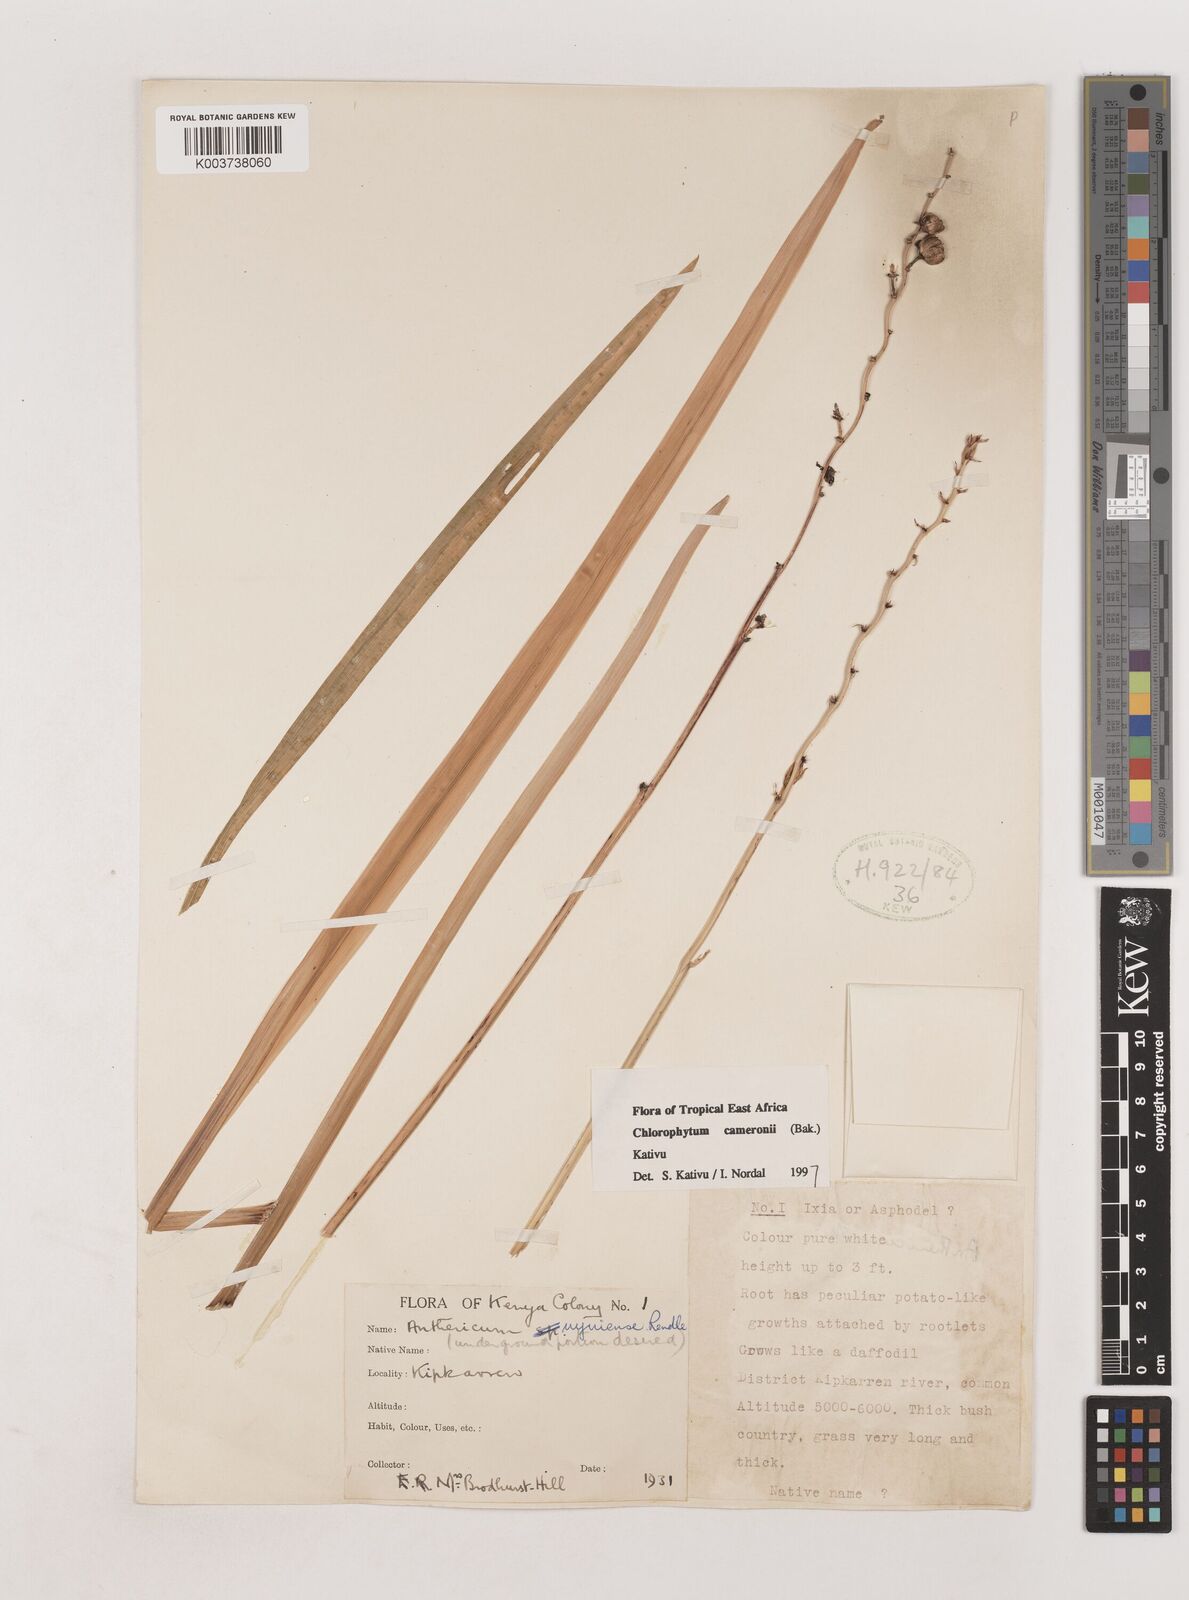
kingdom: Plantae
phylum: Tracheophyta
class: Liliopsida
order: Asparagales
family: Asparagaceae
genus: Chlorophytum
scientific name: Chlorophytum cameronii
